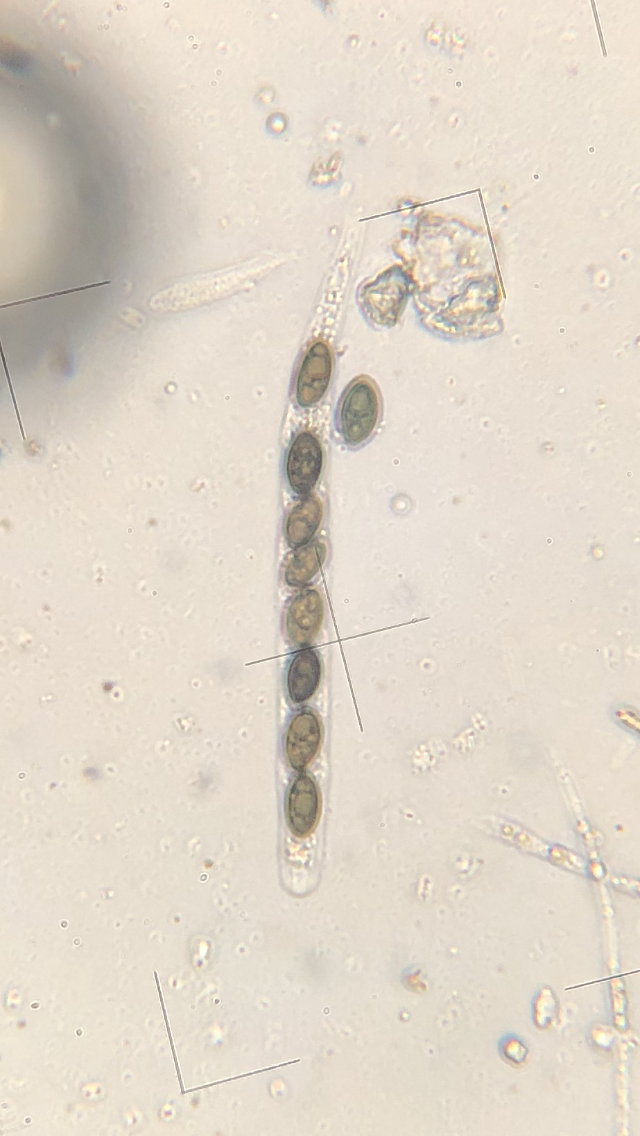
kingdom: Fungi
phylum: Ascomycota
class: Sordariomycetes
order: Xylariales
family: Xylariaceae
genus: Nemania
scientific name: Nemania confluens
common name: indsænket kuldyne
